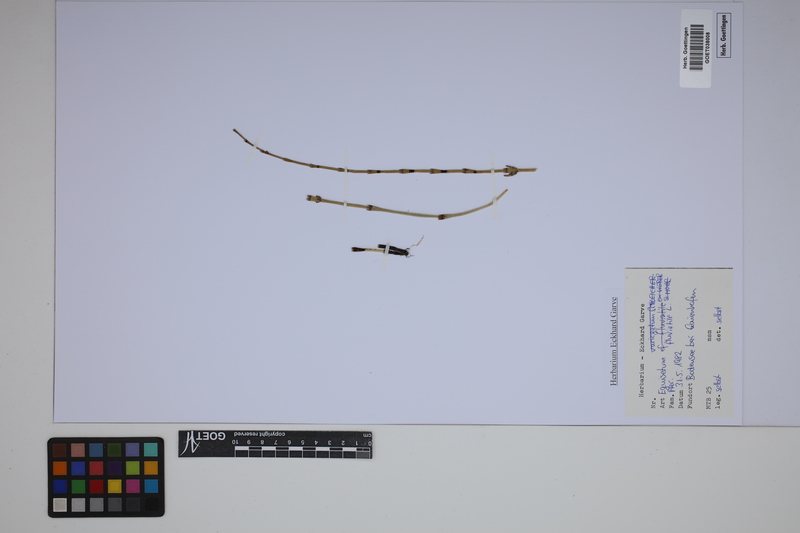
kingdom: Plantae
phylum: Tracheophyta
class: Polypodiopsida
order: Equisetales
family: Equisetaceae
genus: Equisetum
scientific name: Equisetum fluviatile
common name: Water horsetail
